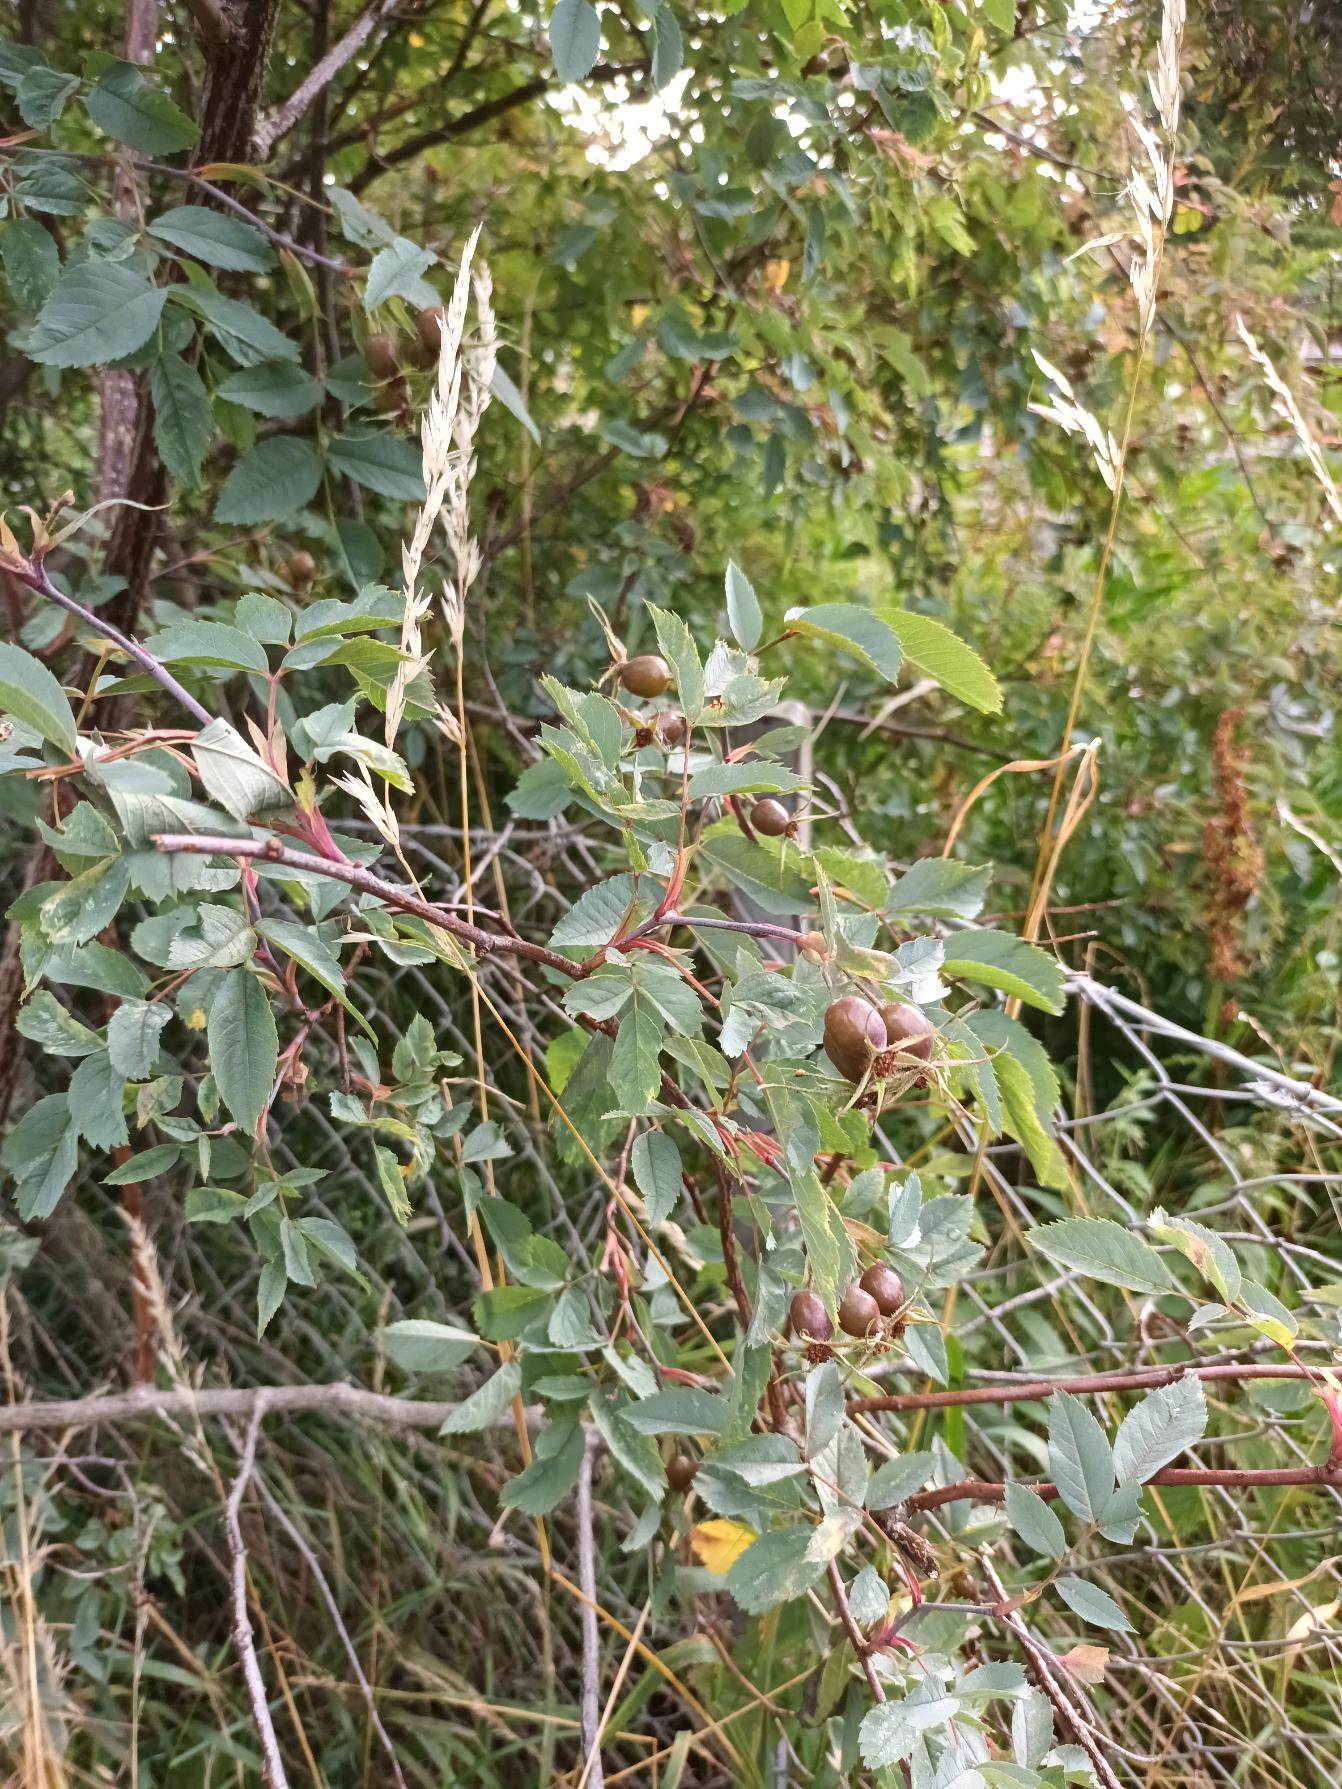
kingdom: Plantae
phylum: Tracheophyta
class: Magnoliopsida
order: Rosales
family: Rosaceae
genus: Rosa
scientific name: Rosa glauca
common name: Kobber-rose
